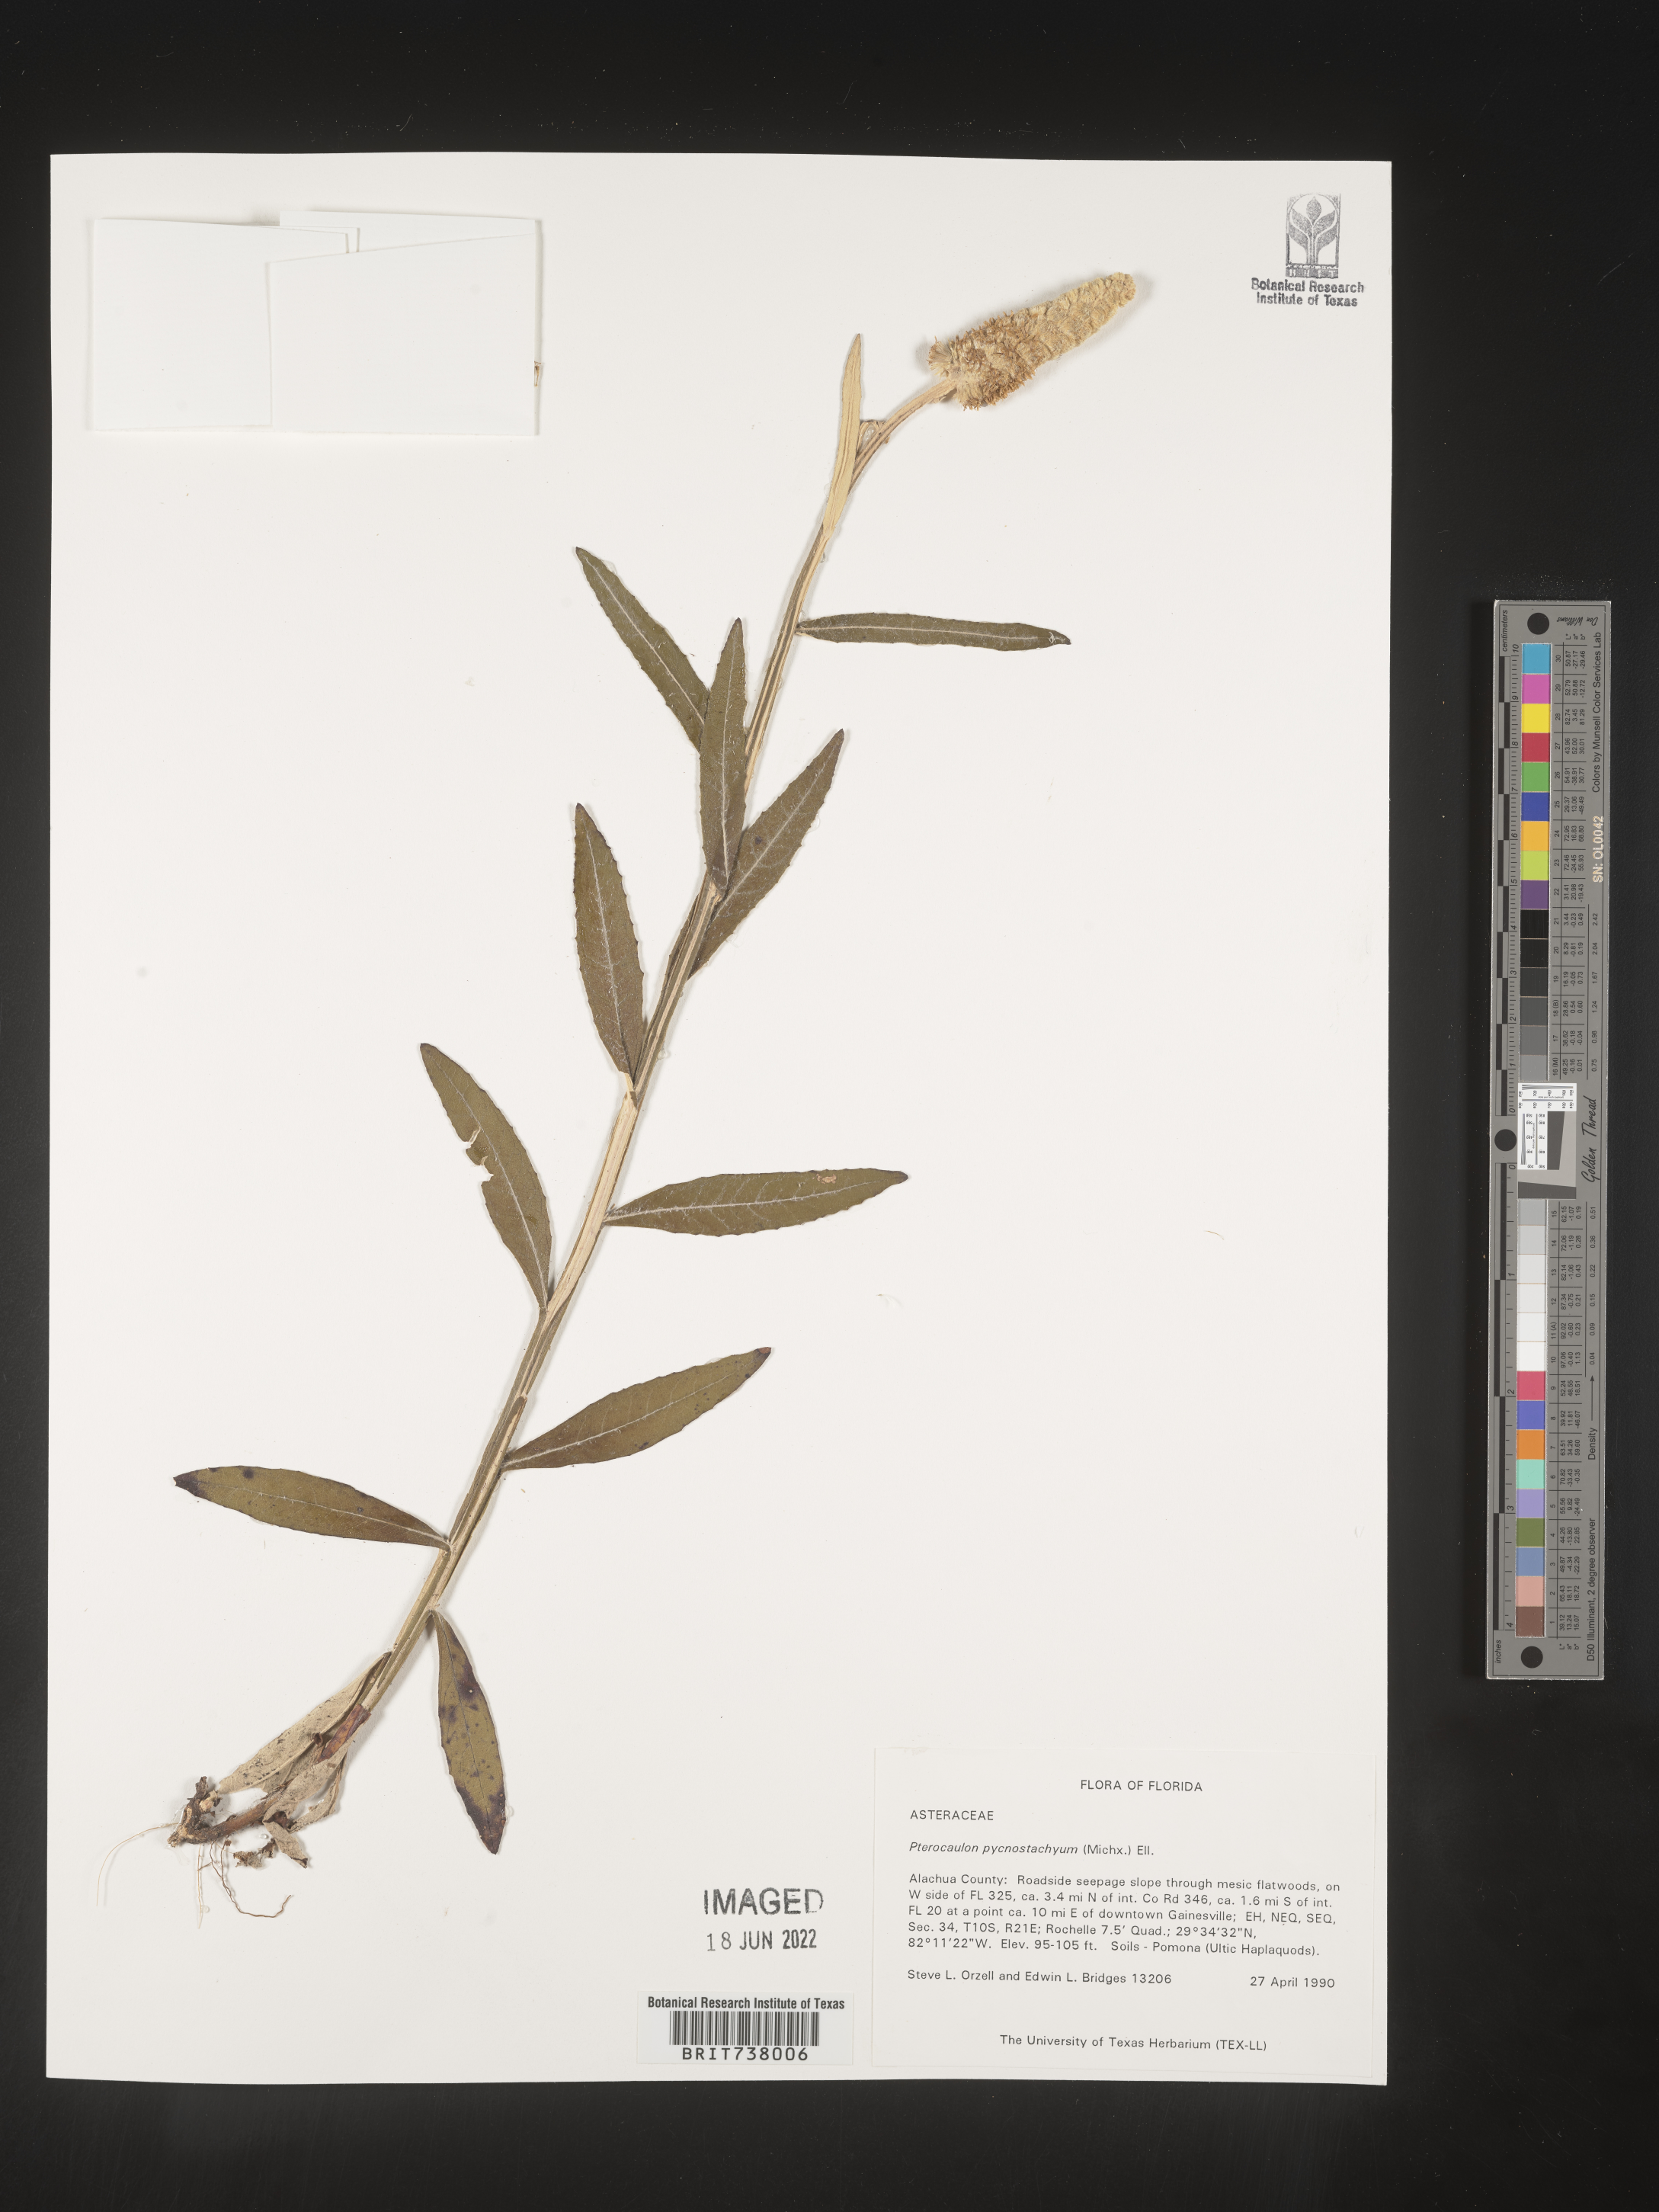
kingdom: Plantae
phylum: Tracheophyta
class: Magnoliopsida
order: Asterales
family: Asteraceae
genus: Pterocaulon
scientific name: Pterocaulon pycnostachyum
